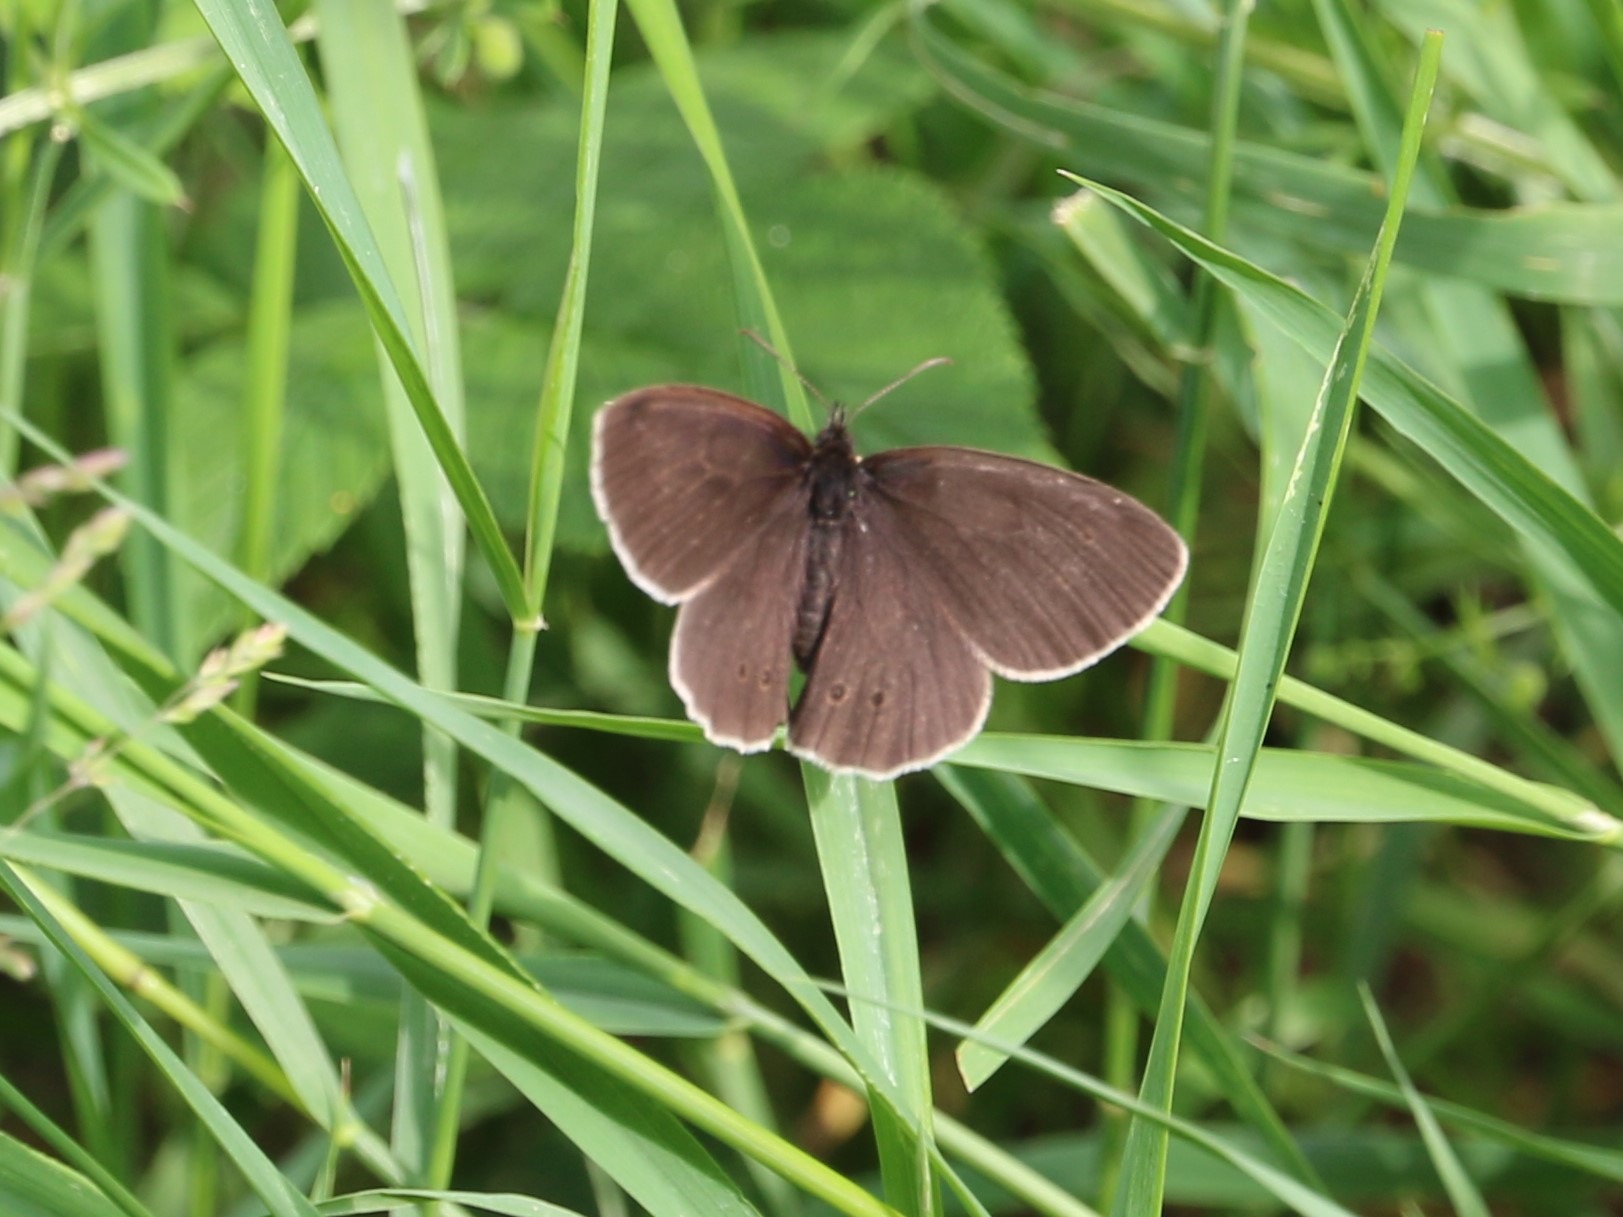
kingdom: Animalia
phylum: Arthropoda
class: Insecta
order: Lepidoptera
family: Nymphalidae
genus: Aphantopus
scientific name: Aphantopus hyperantus
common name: Engrandøje
